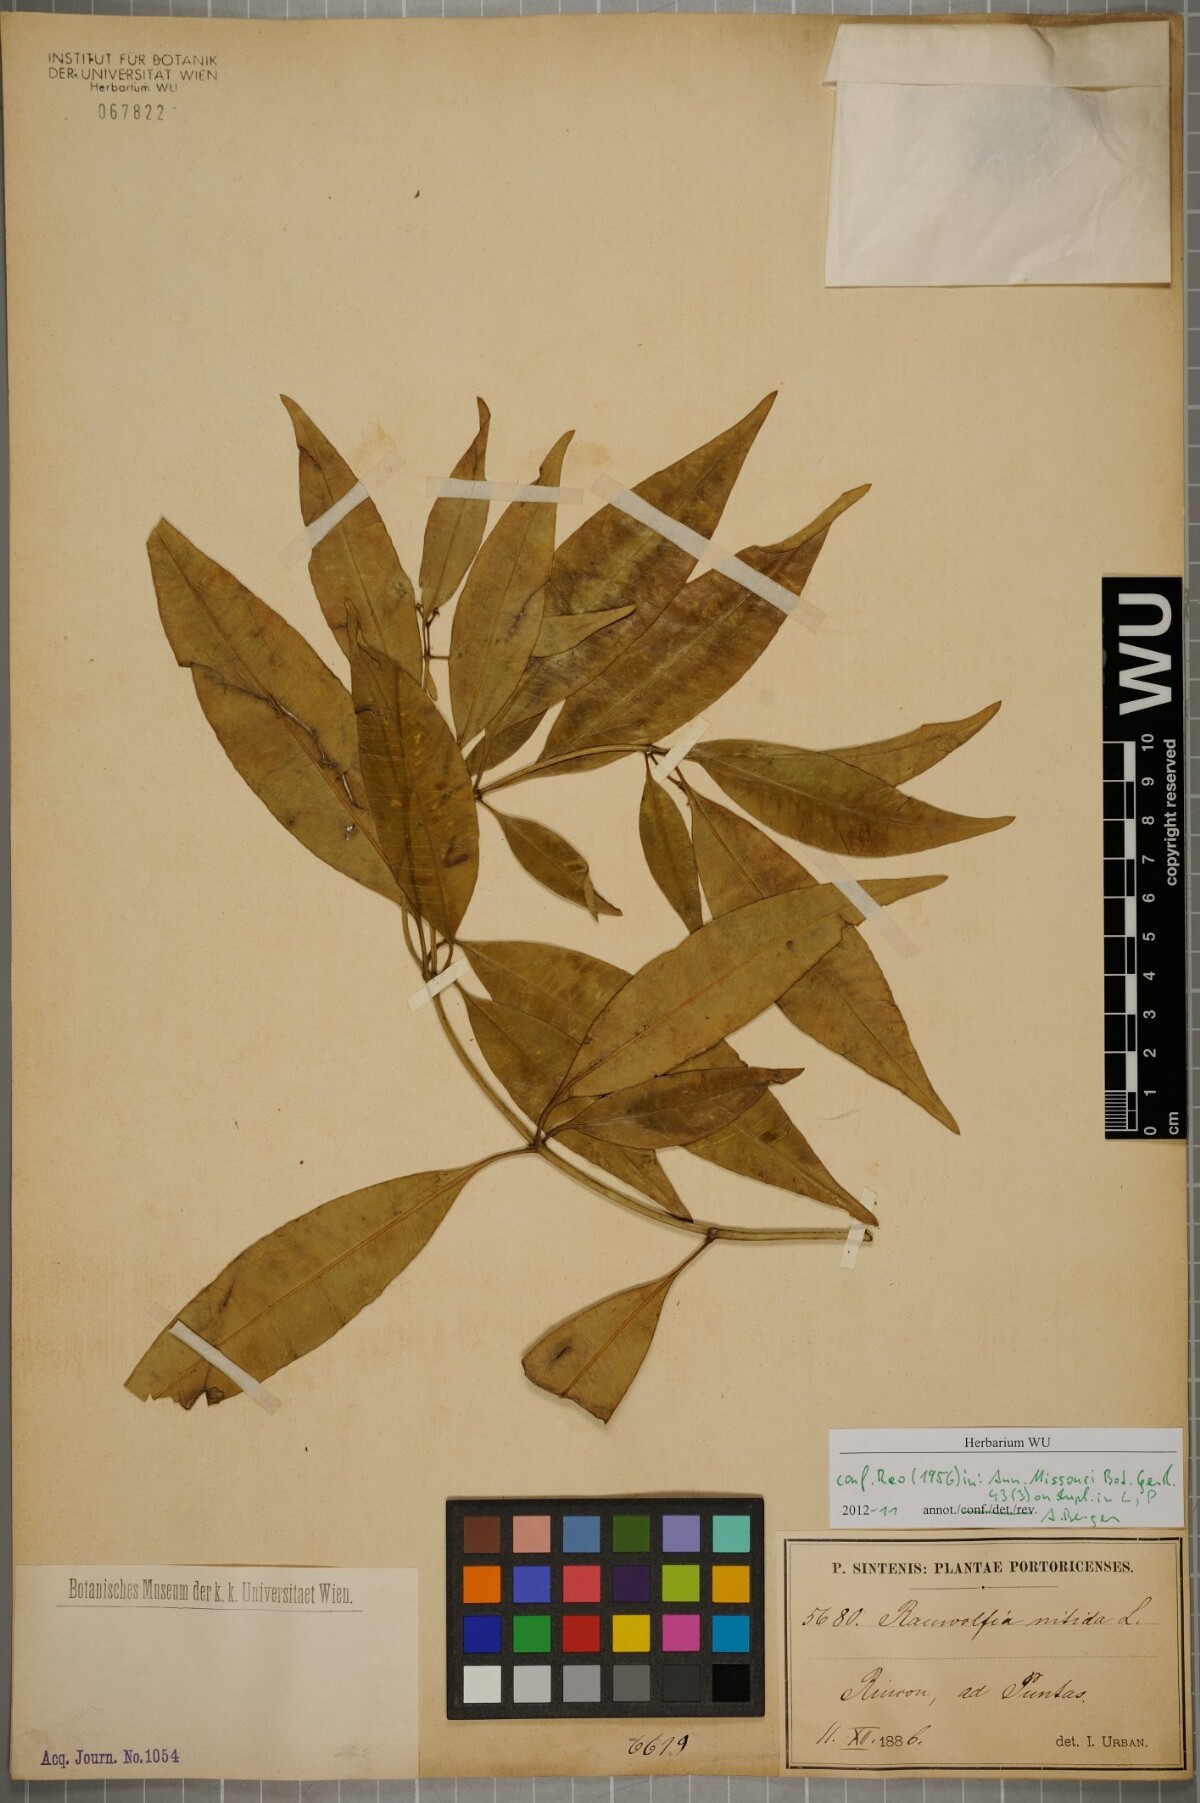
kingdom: Plantae
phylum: Tracheophyta
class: Magnoliopsida
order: Gentianales
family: Apocynaceae
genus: Rauvolfia
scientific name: Rauvolfia nitida
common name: Bitter-ash
